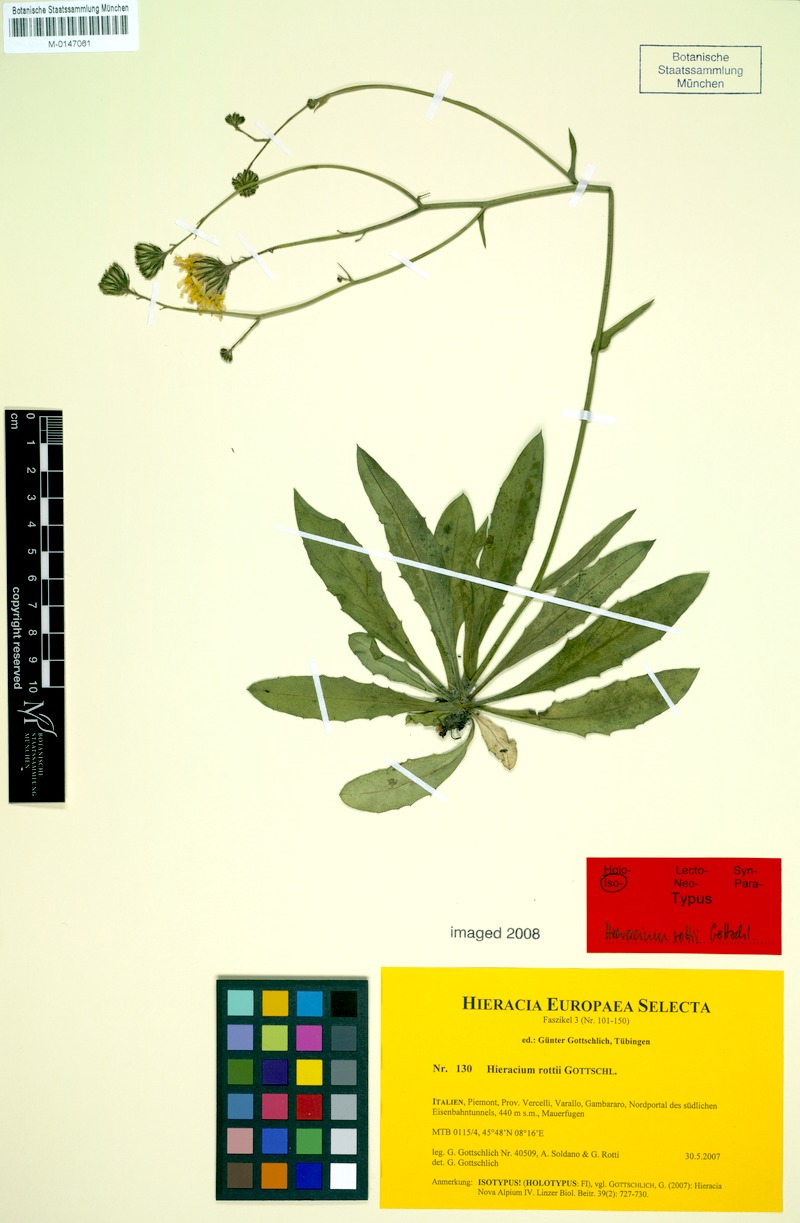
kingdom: Plantae
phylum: Tracheophyta
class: Magnoliopsida
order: Asterales
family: Asteraceae
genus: Hieracium
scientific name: Hieracium rottii
